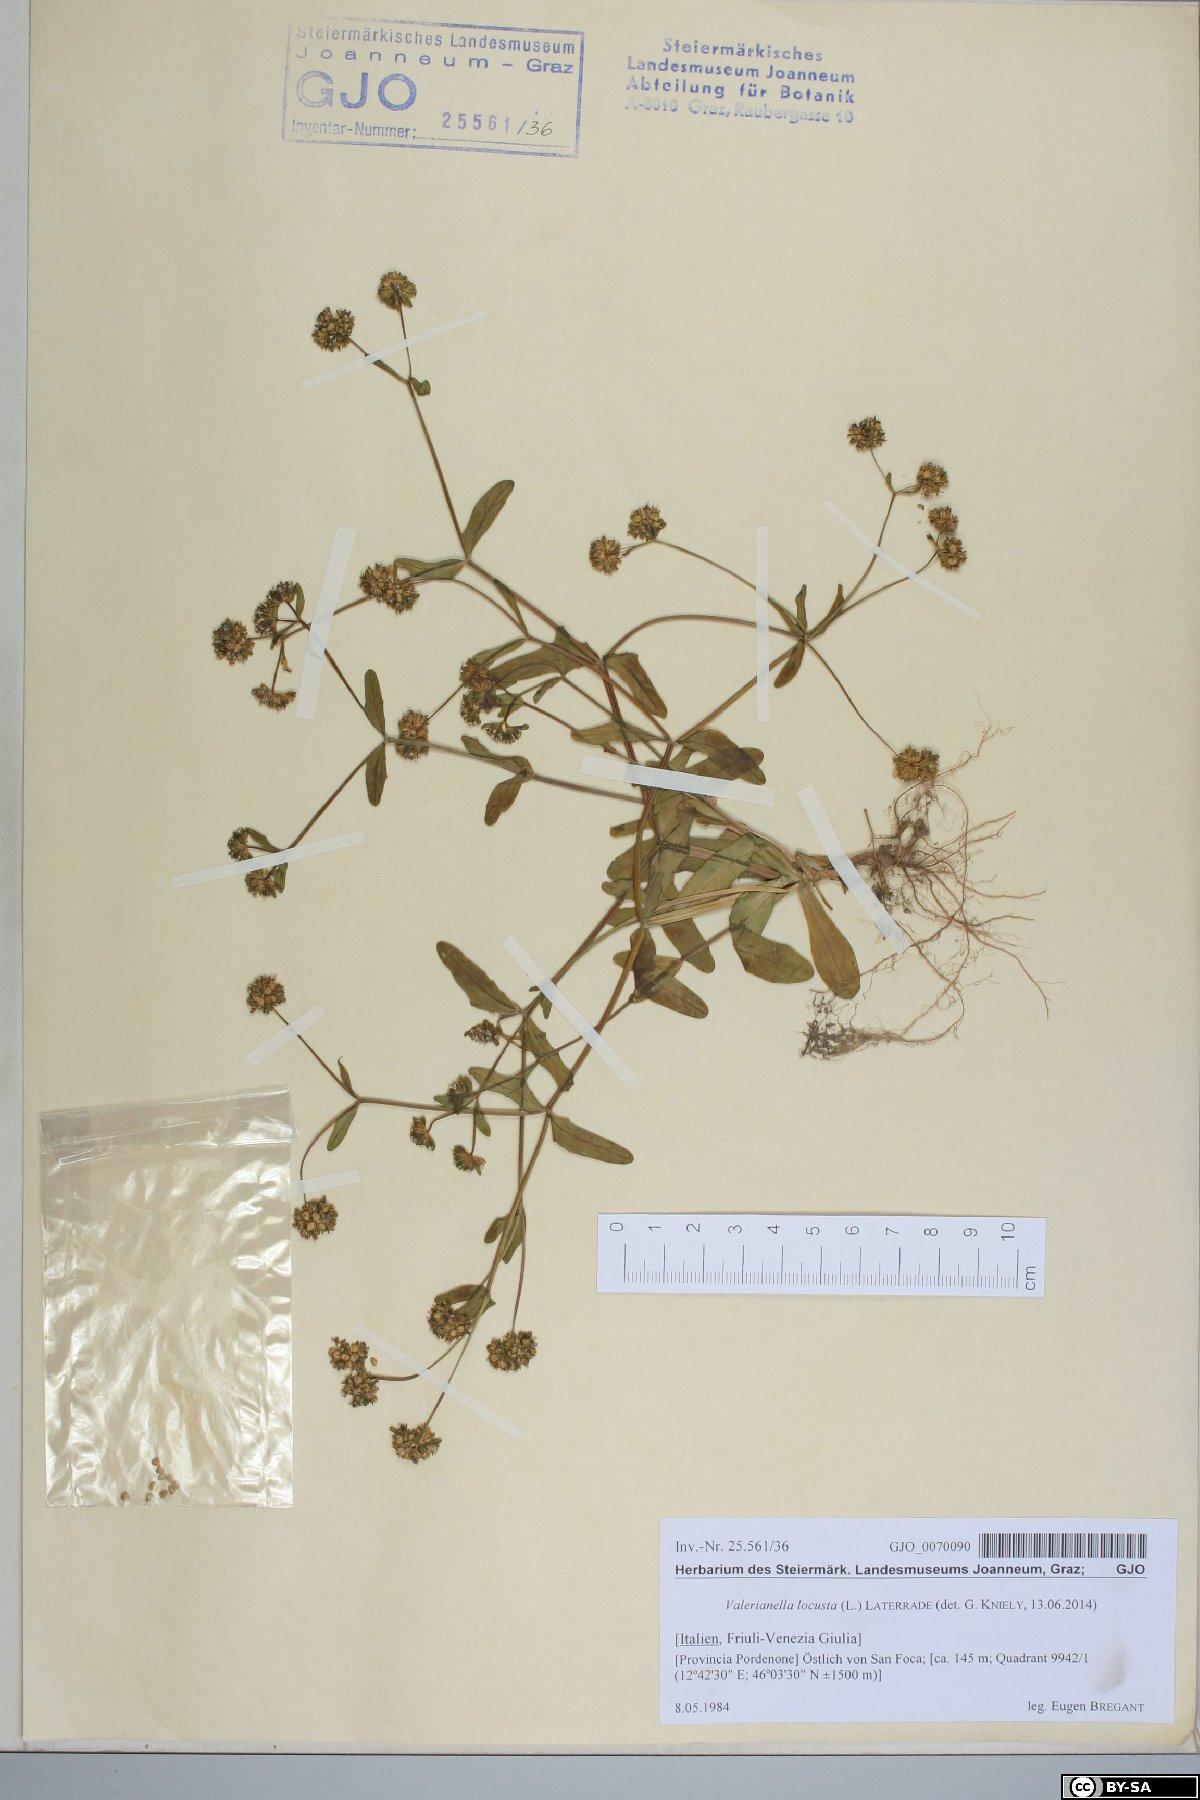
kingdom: Plantae
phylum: Tracheophyta
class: Magnoliopsida
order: Dipsacales
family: Caprifoliaceae
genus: Valerianella
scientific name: Valerianella locusta
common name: Common cornsalad
